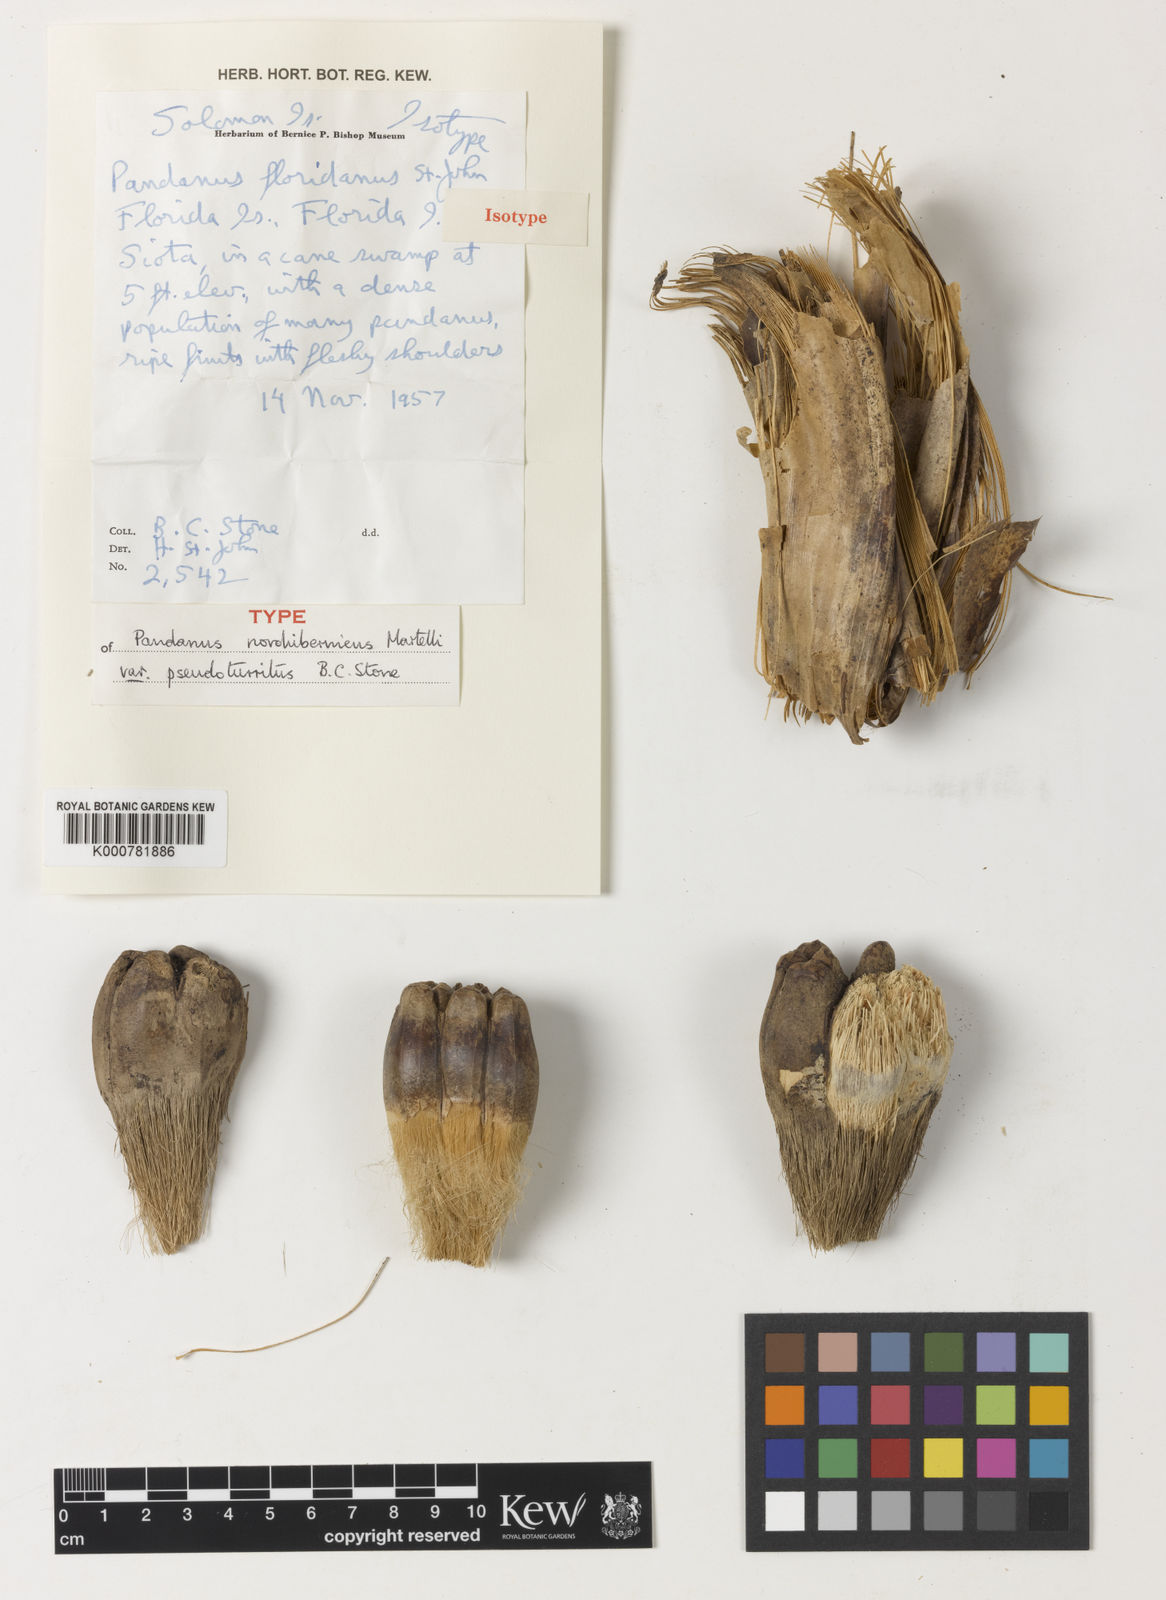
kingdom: Plantae
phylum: Tracheophyta
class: Liliopsida
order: Pandanales
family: Pandanaceae
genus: Pandanus
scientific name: Pandanus novohibernicus
